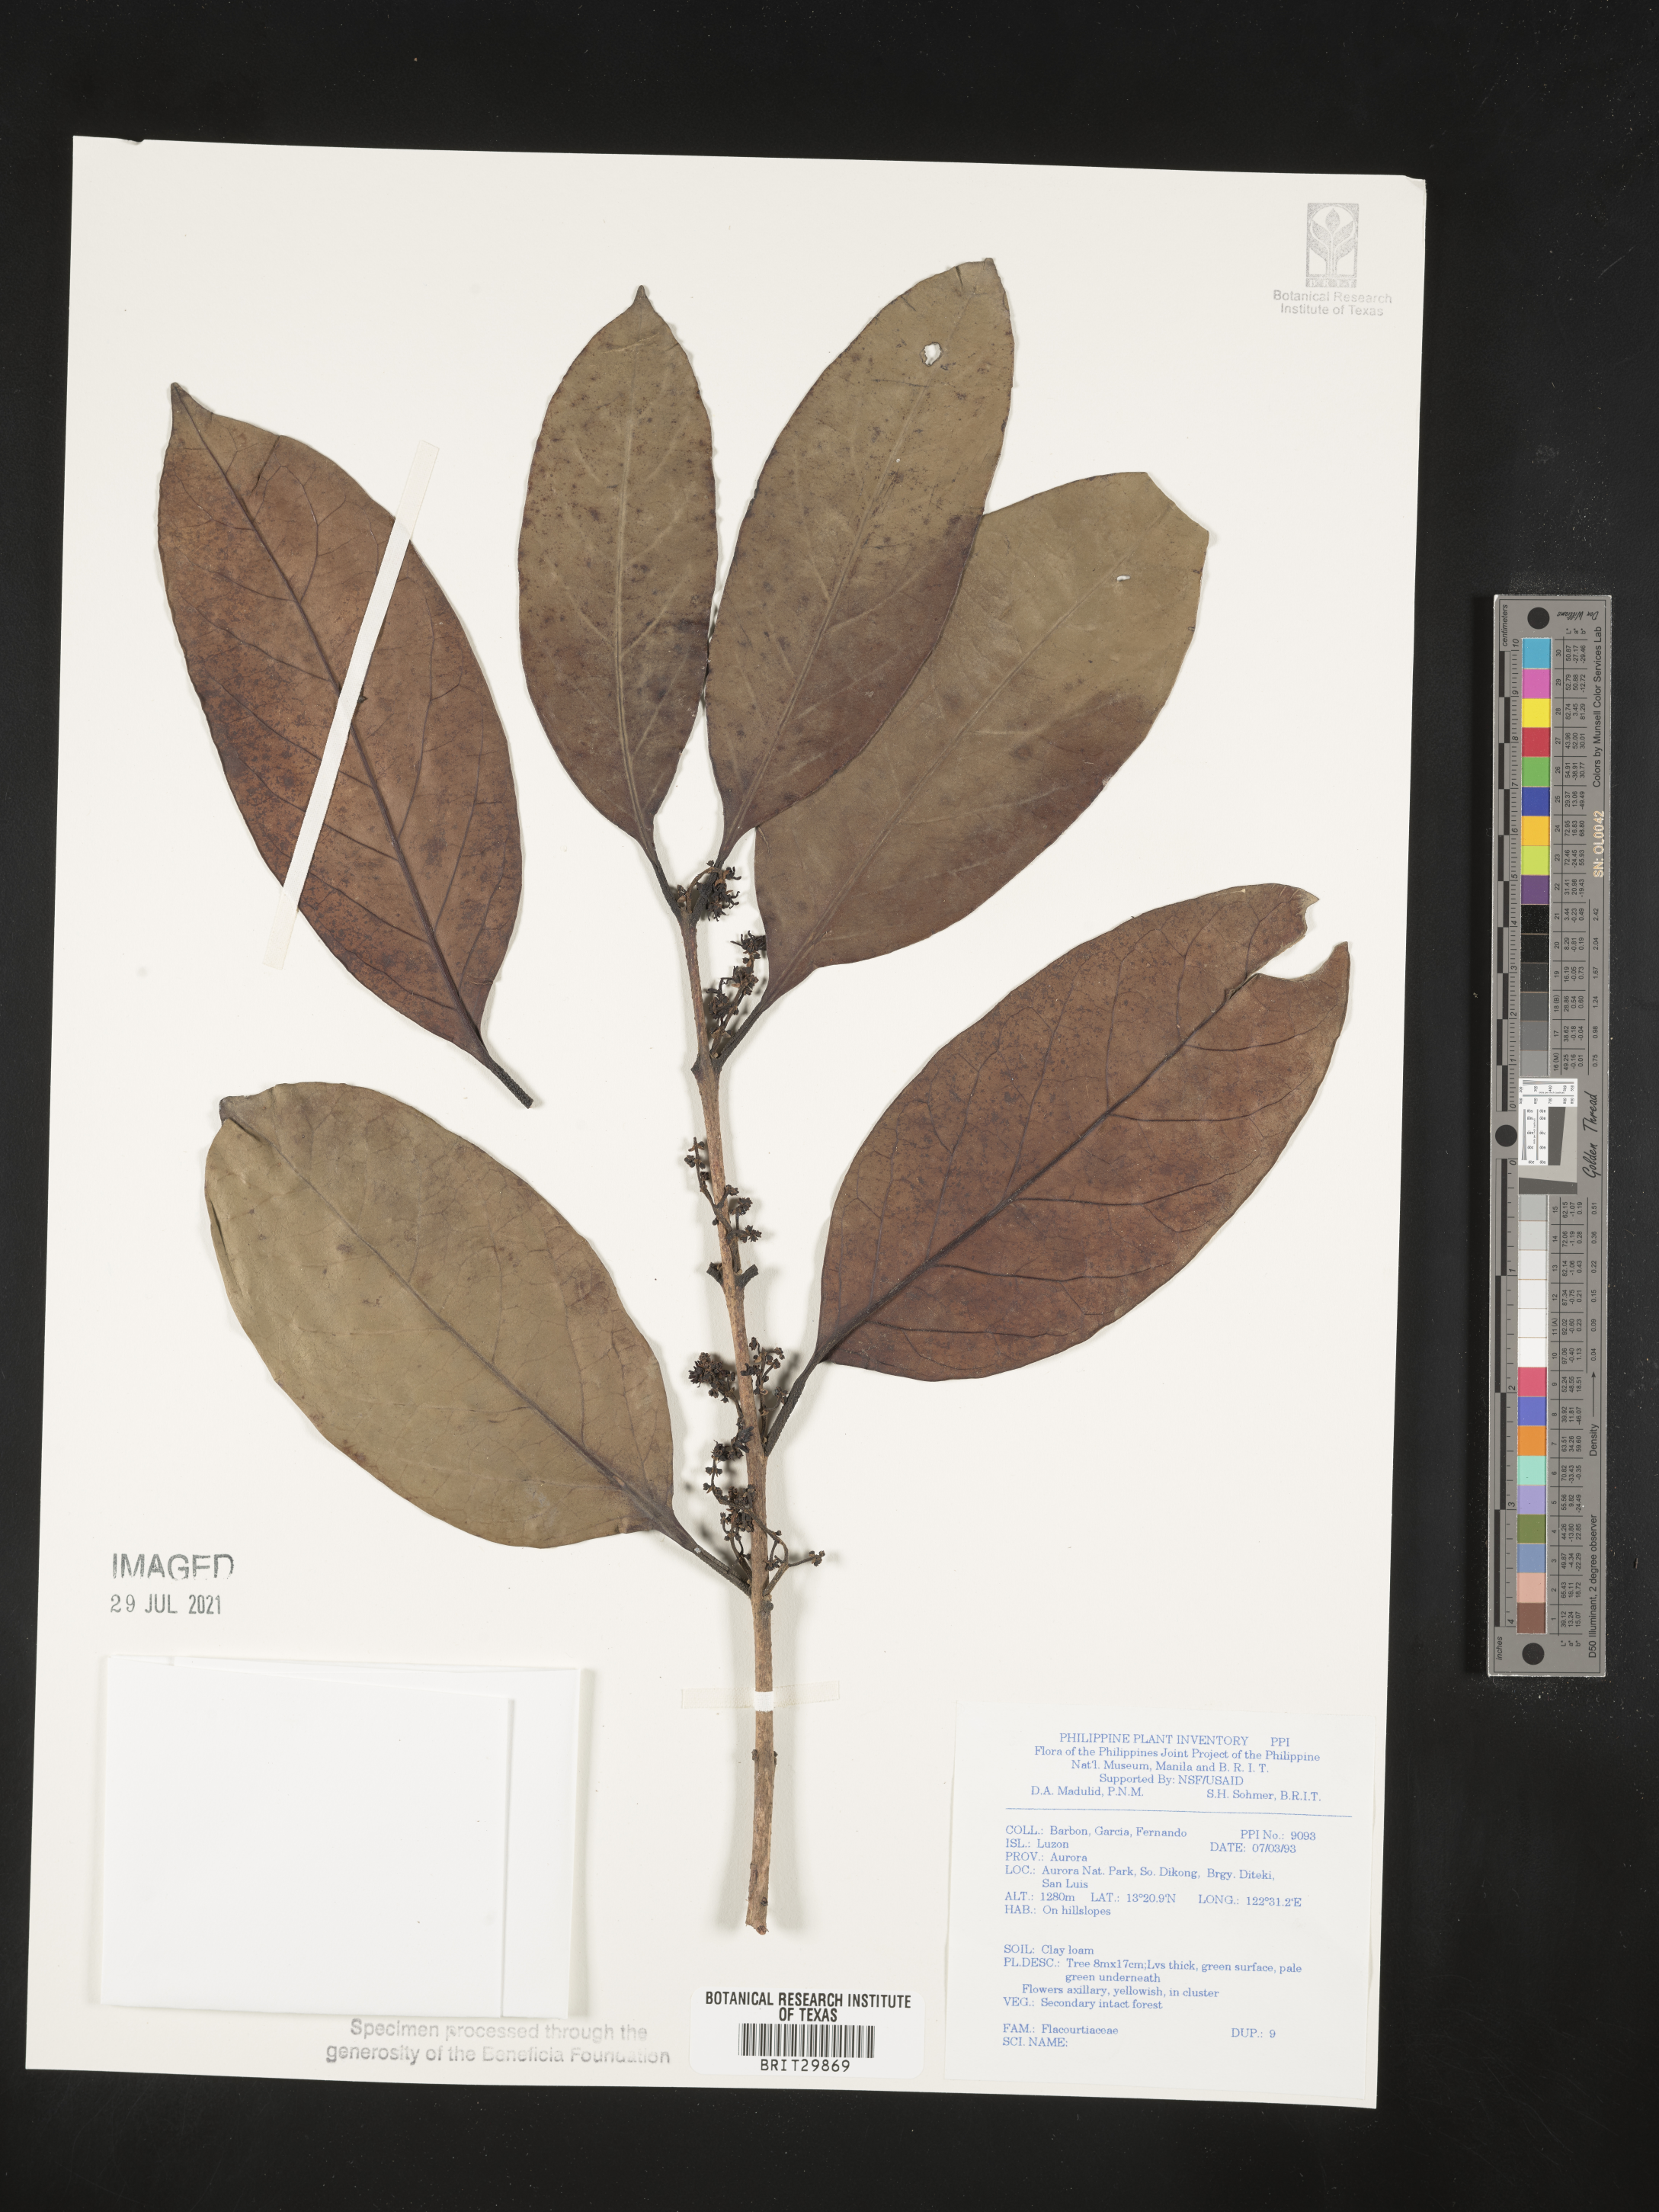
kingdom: Plantae
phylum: Tracheophyta
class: Magnoliopsida
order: Malpighiales
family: Flacourtiaceae
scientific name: Flacourtiaceae
